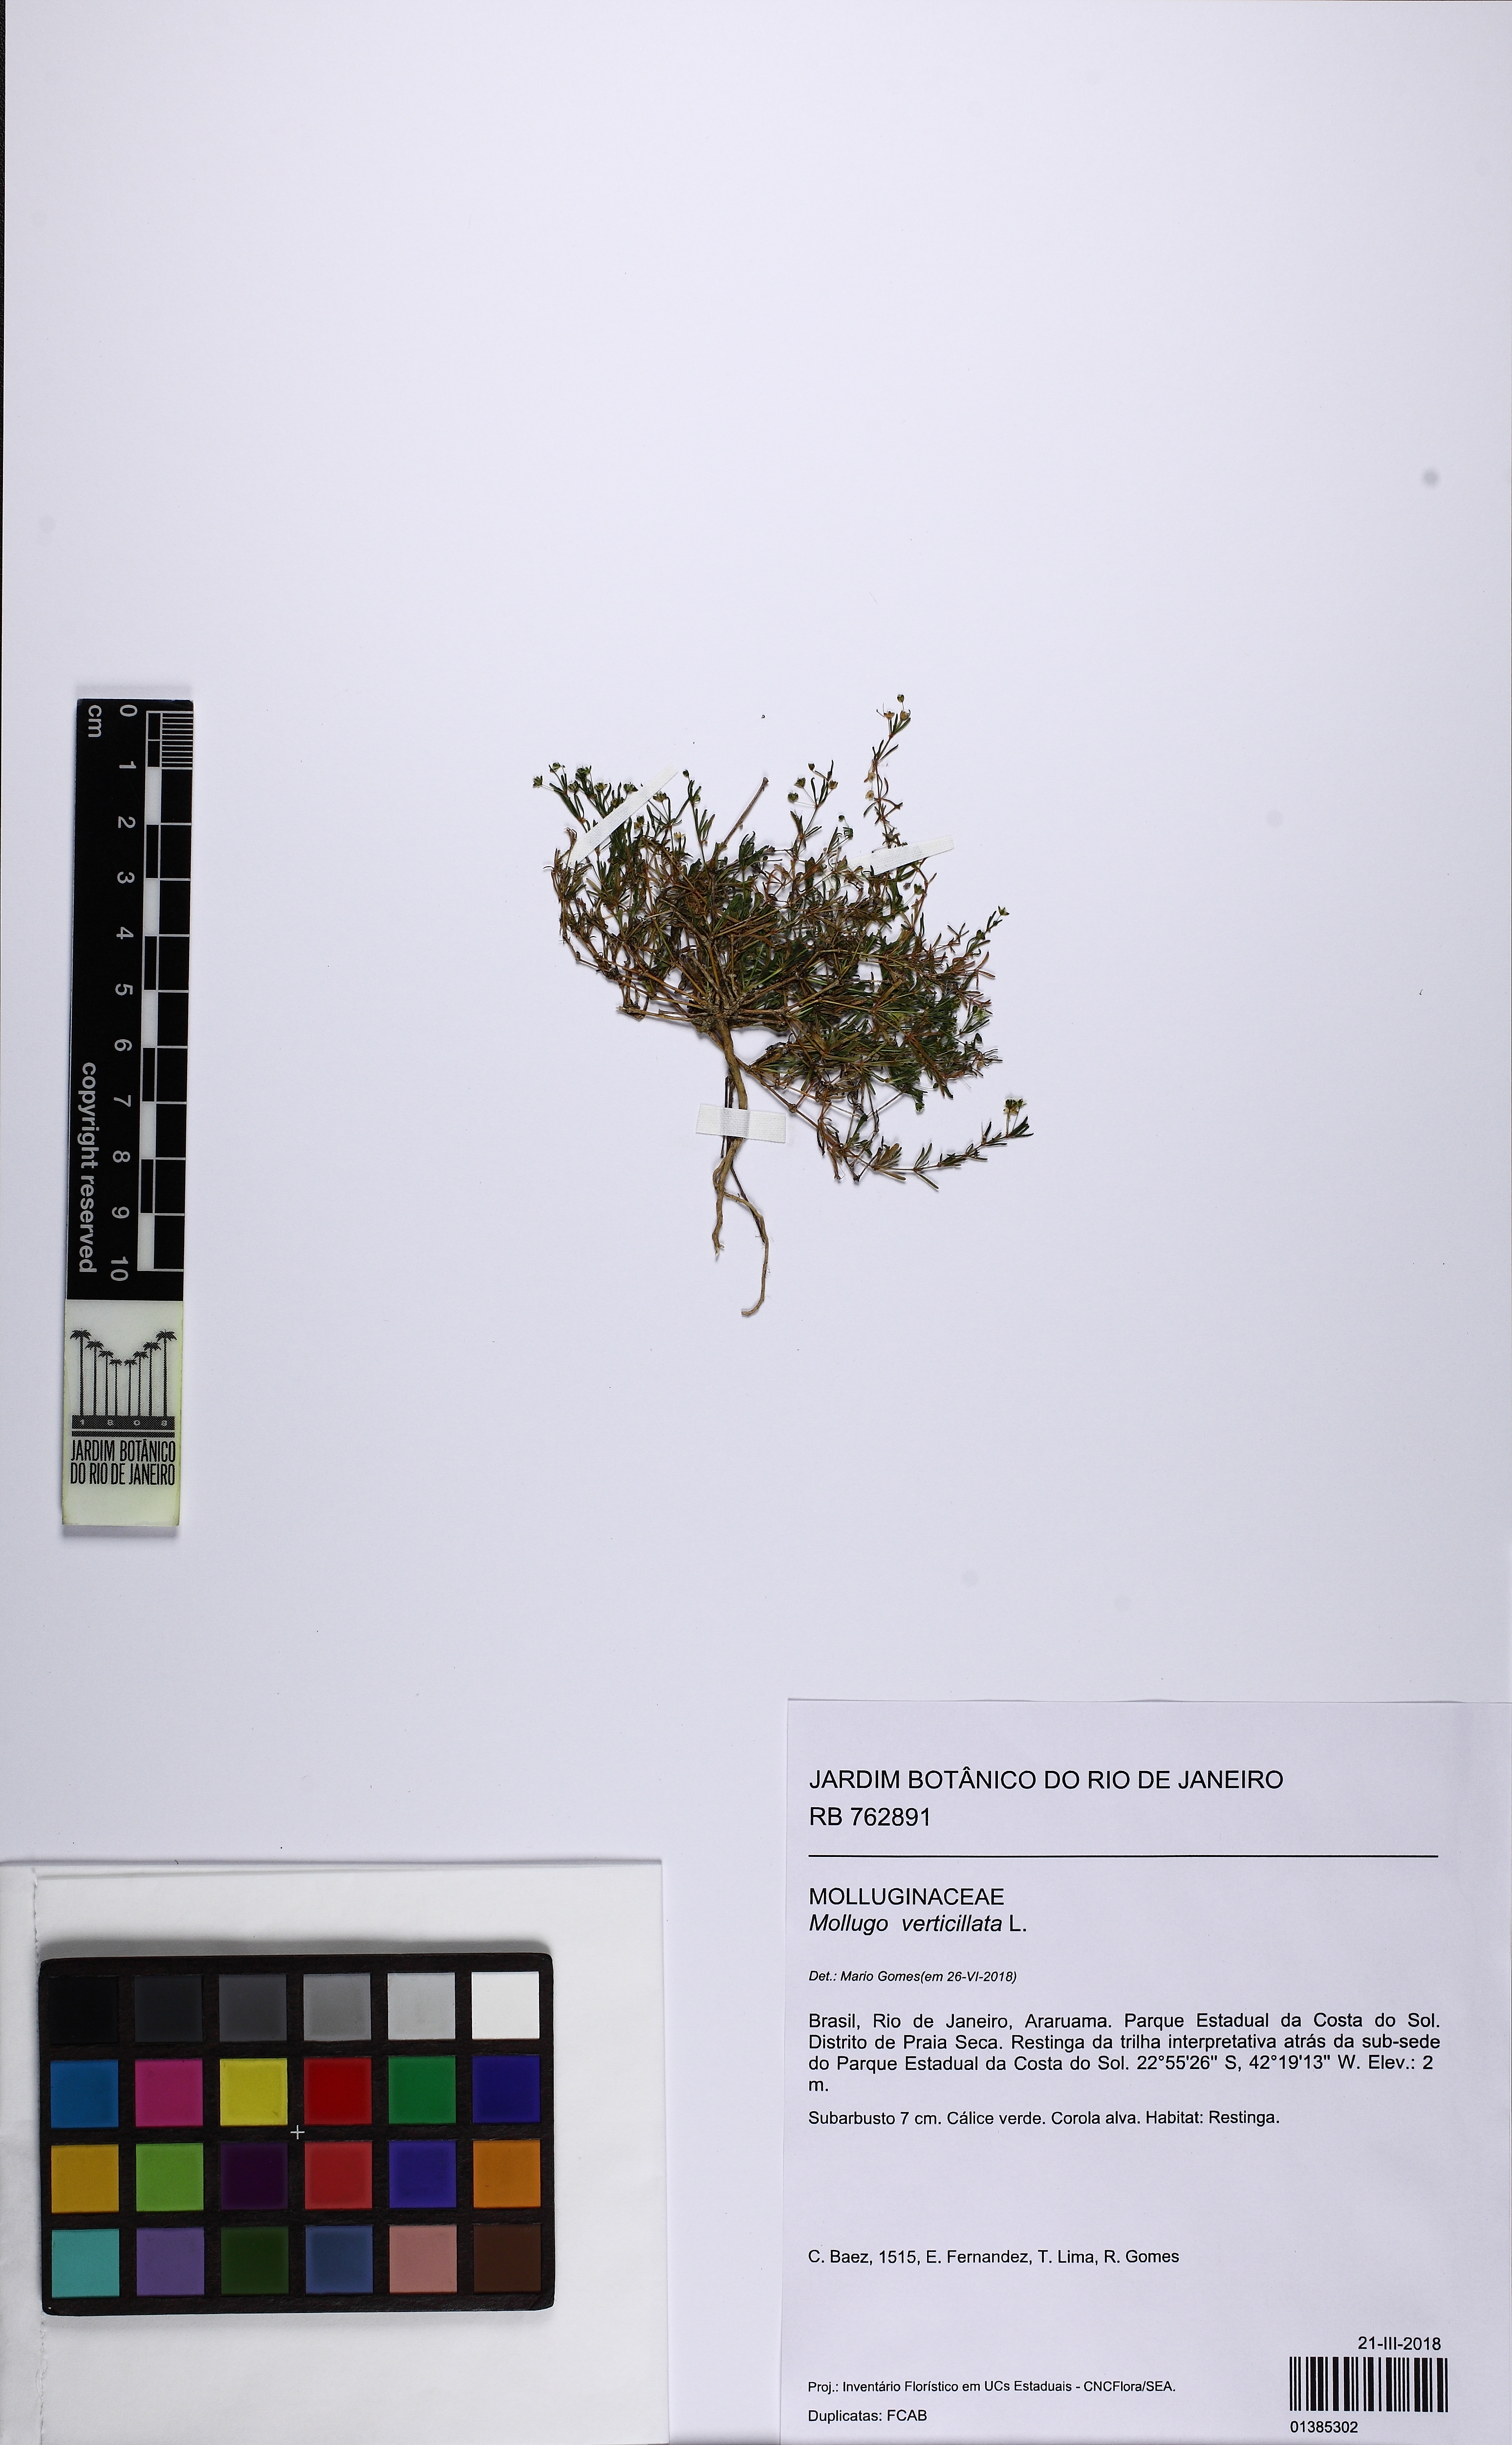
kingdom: Plantae
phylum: Tracheophyta
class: Magnoliopsida
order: Caryophyllales
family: Molluginaceae
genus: Mollugo
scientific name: Mollugo verticillata
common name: Green carpetweed
